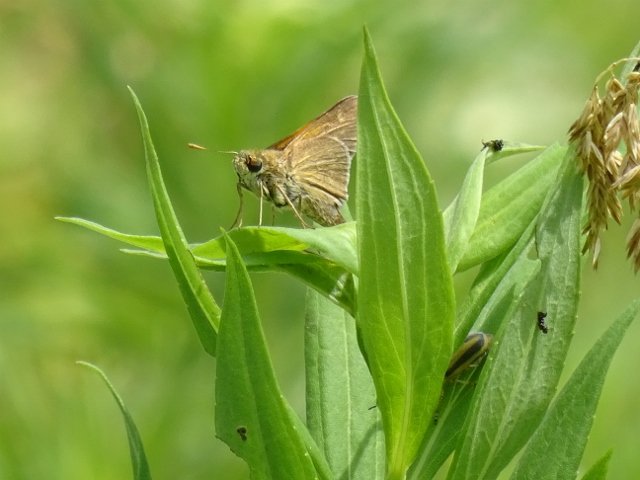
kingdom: Animalia
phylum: Arthropoda
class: Insecta
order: Lepidoptera
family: Hesperiidae
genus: Polites
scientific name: Polites themistocles
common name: Tawny-edged Skipper
